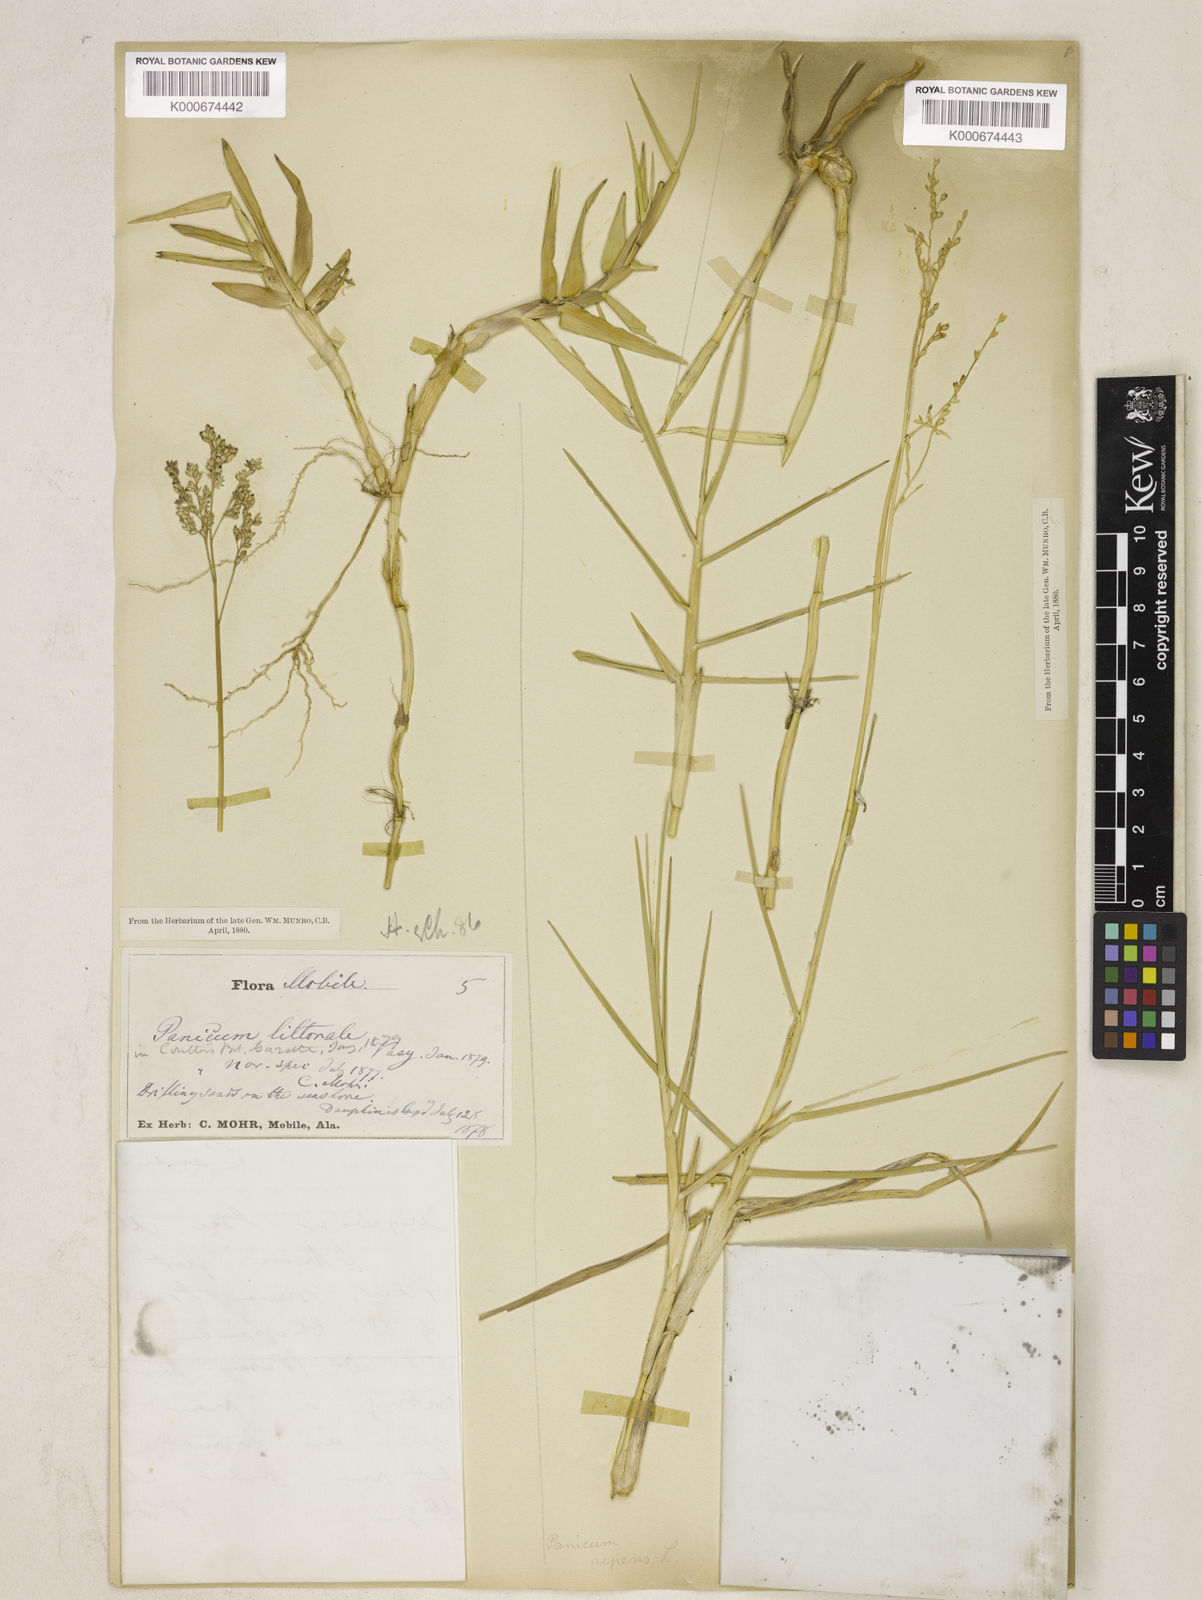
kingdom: Plantae
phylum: Tracheophyta
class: Liliopsida
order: Poales
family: Poaceae
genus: Panicum
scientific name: Panicum repens
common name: Torpedo grass
